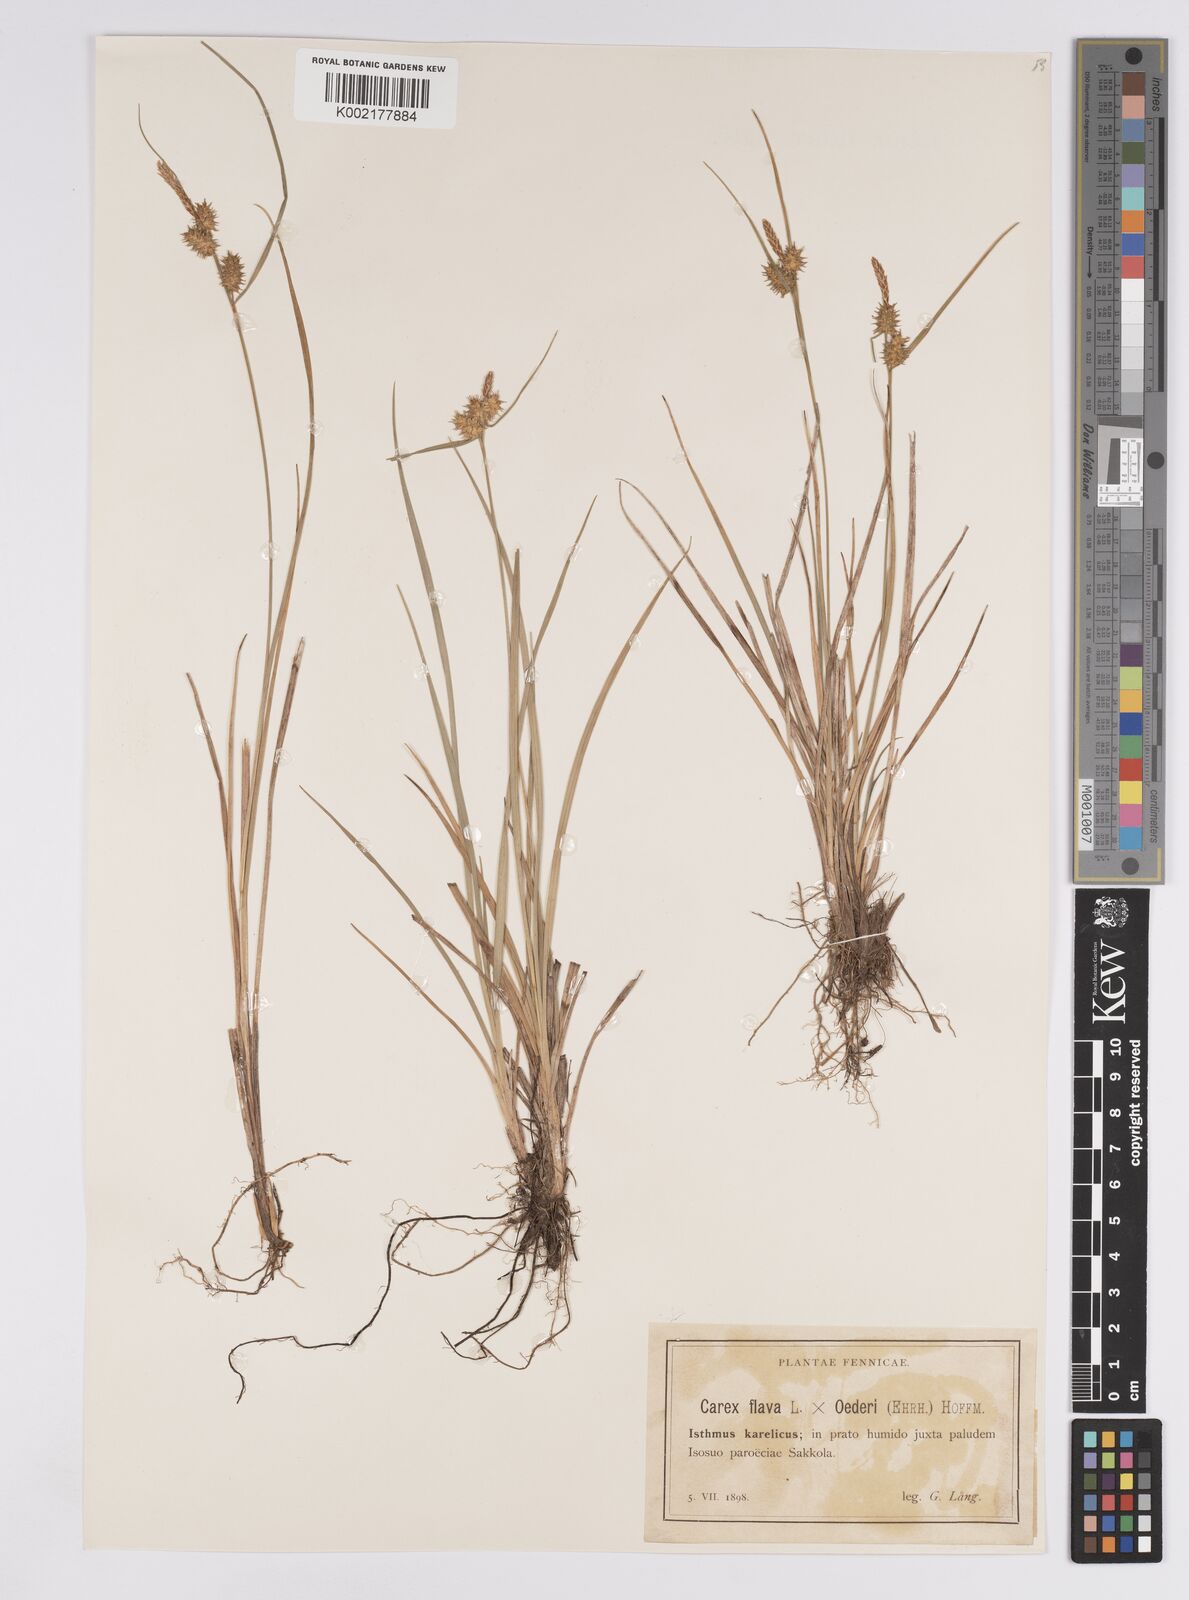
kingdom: Plantae
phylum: Tracheophyta
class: Liliopsida
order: Poales
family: Cyperaceae
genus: Carex
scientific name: Carex flava
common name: Large yellow-sedge
